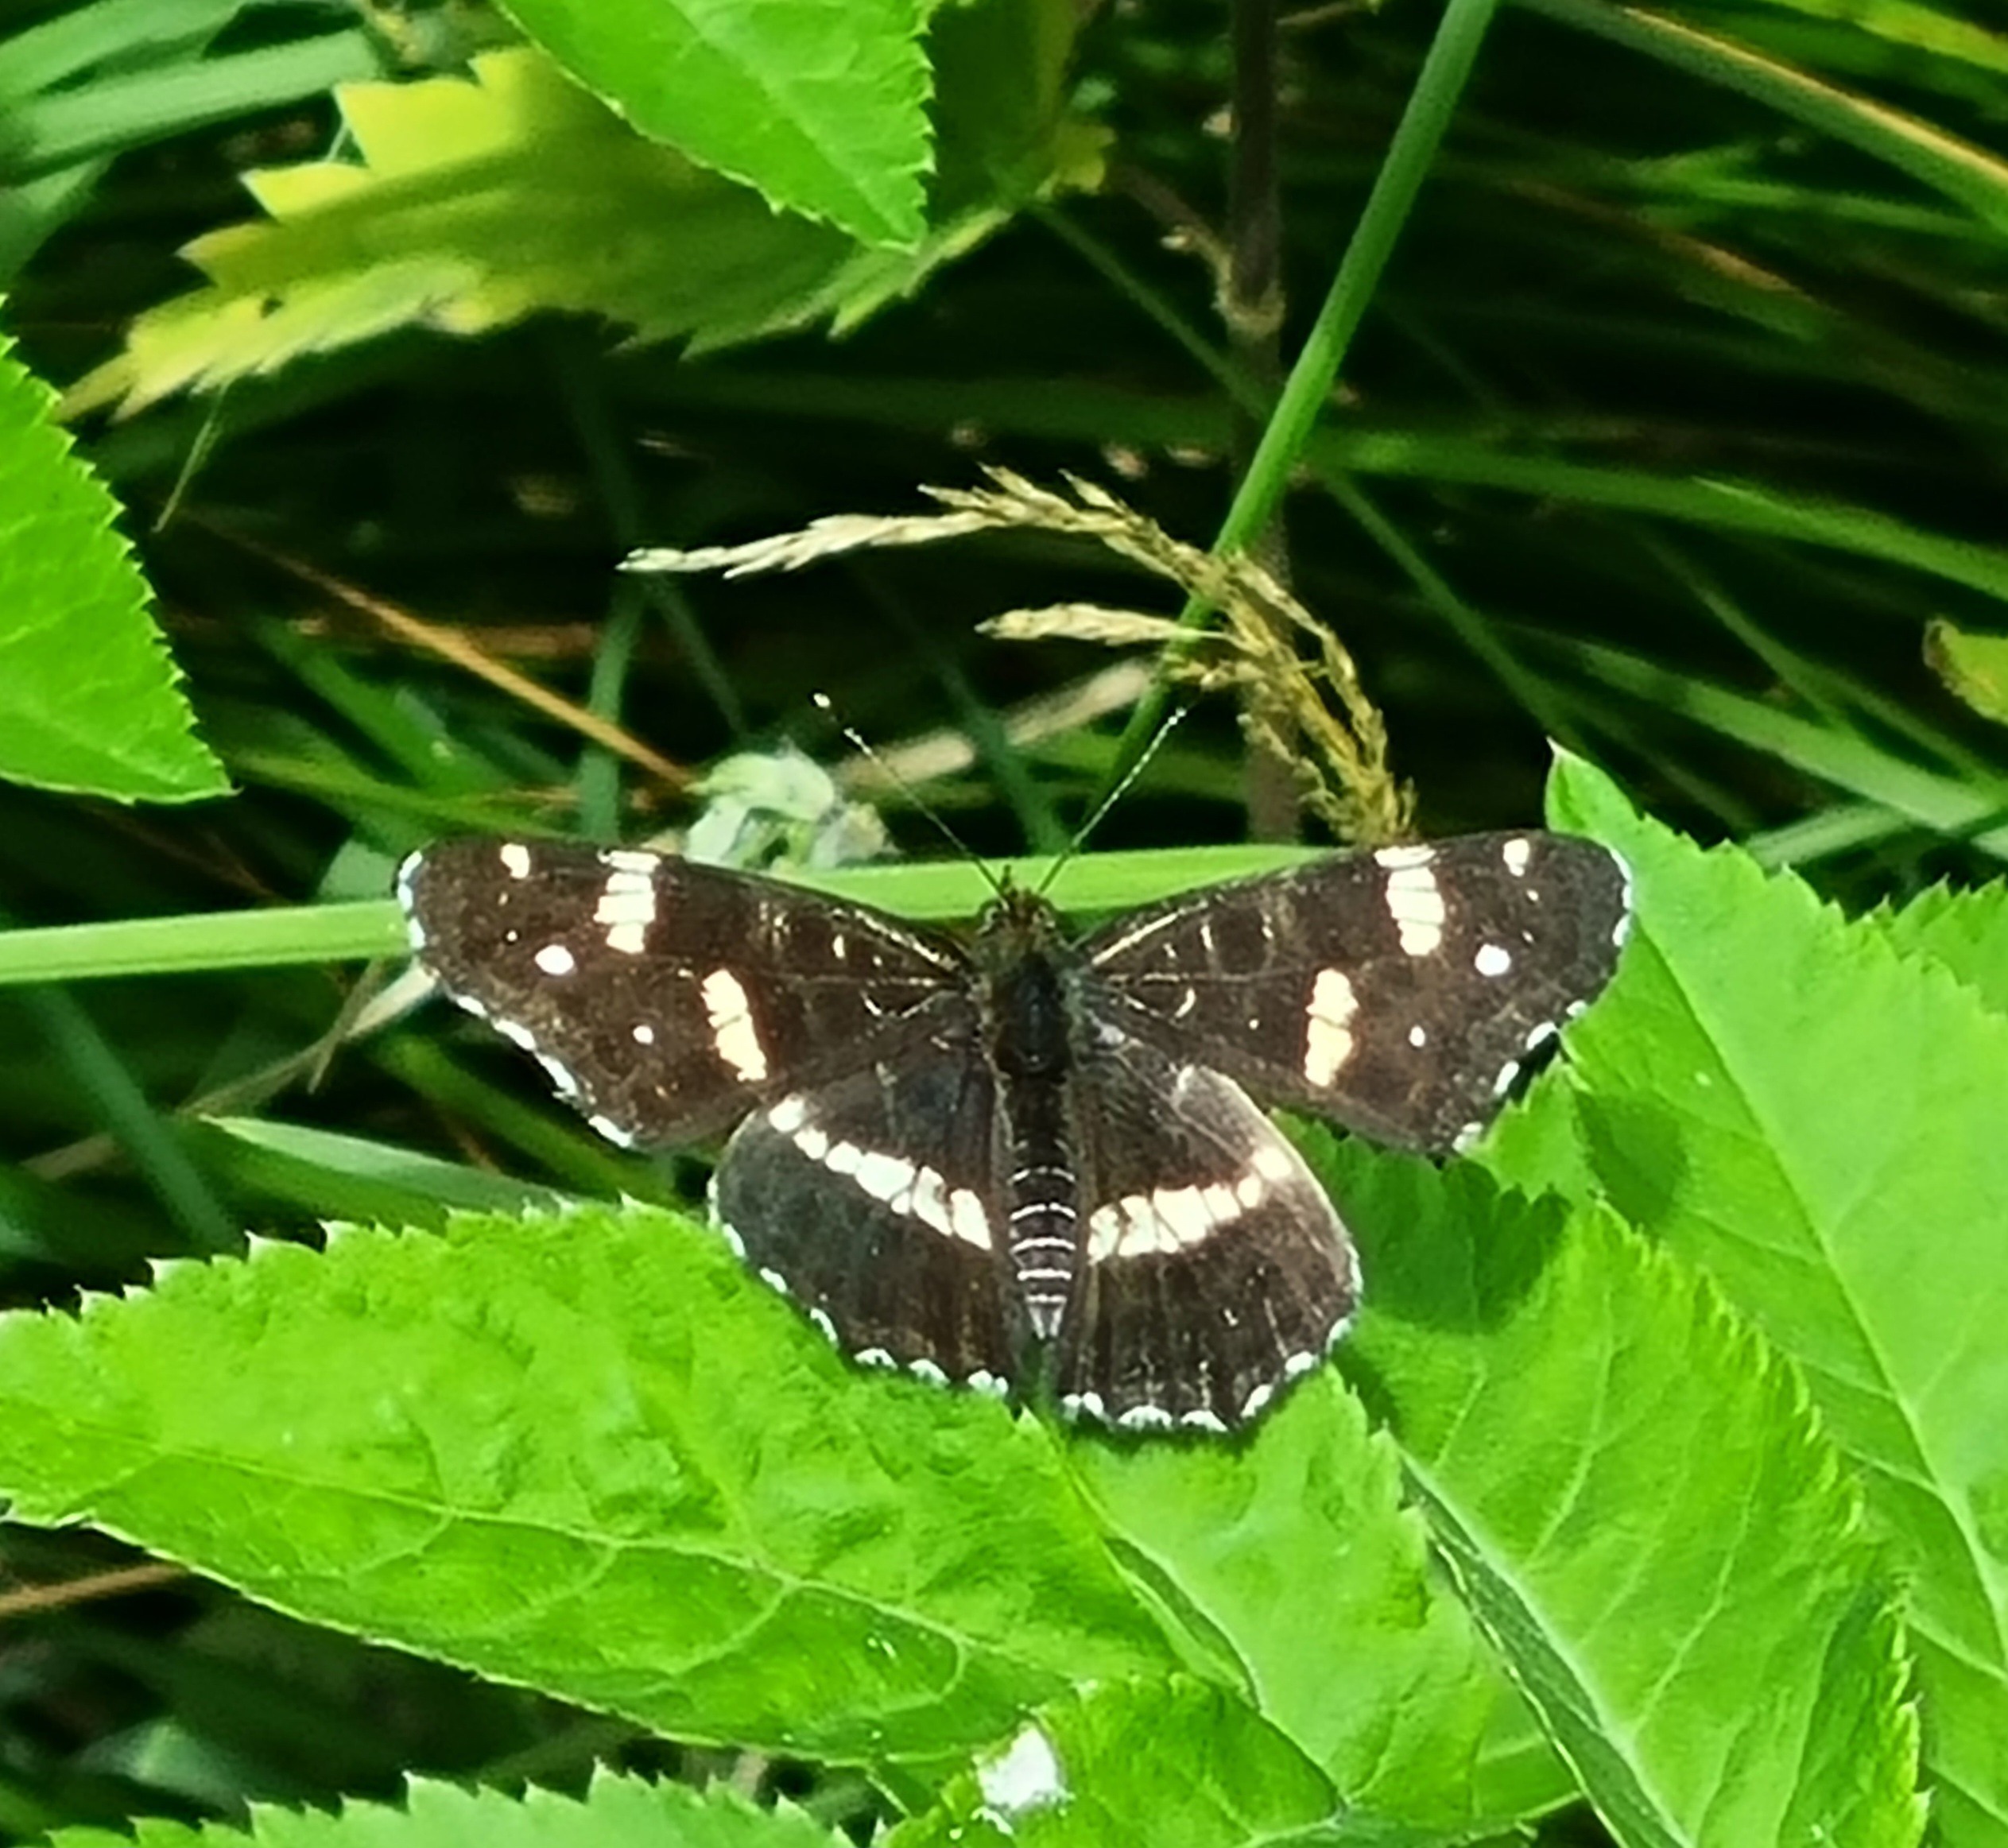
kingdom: Animalia
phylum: Arthropoda
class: Insecta
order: Lepidoptera
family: Nymphalidae
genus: Araschnia
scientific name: Araschnia levana
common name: Nældesommerfugl
